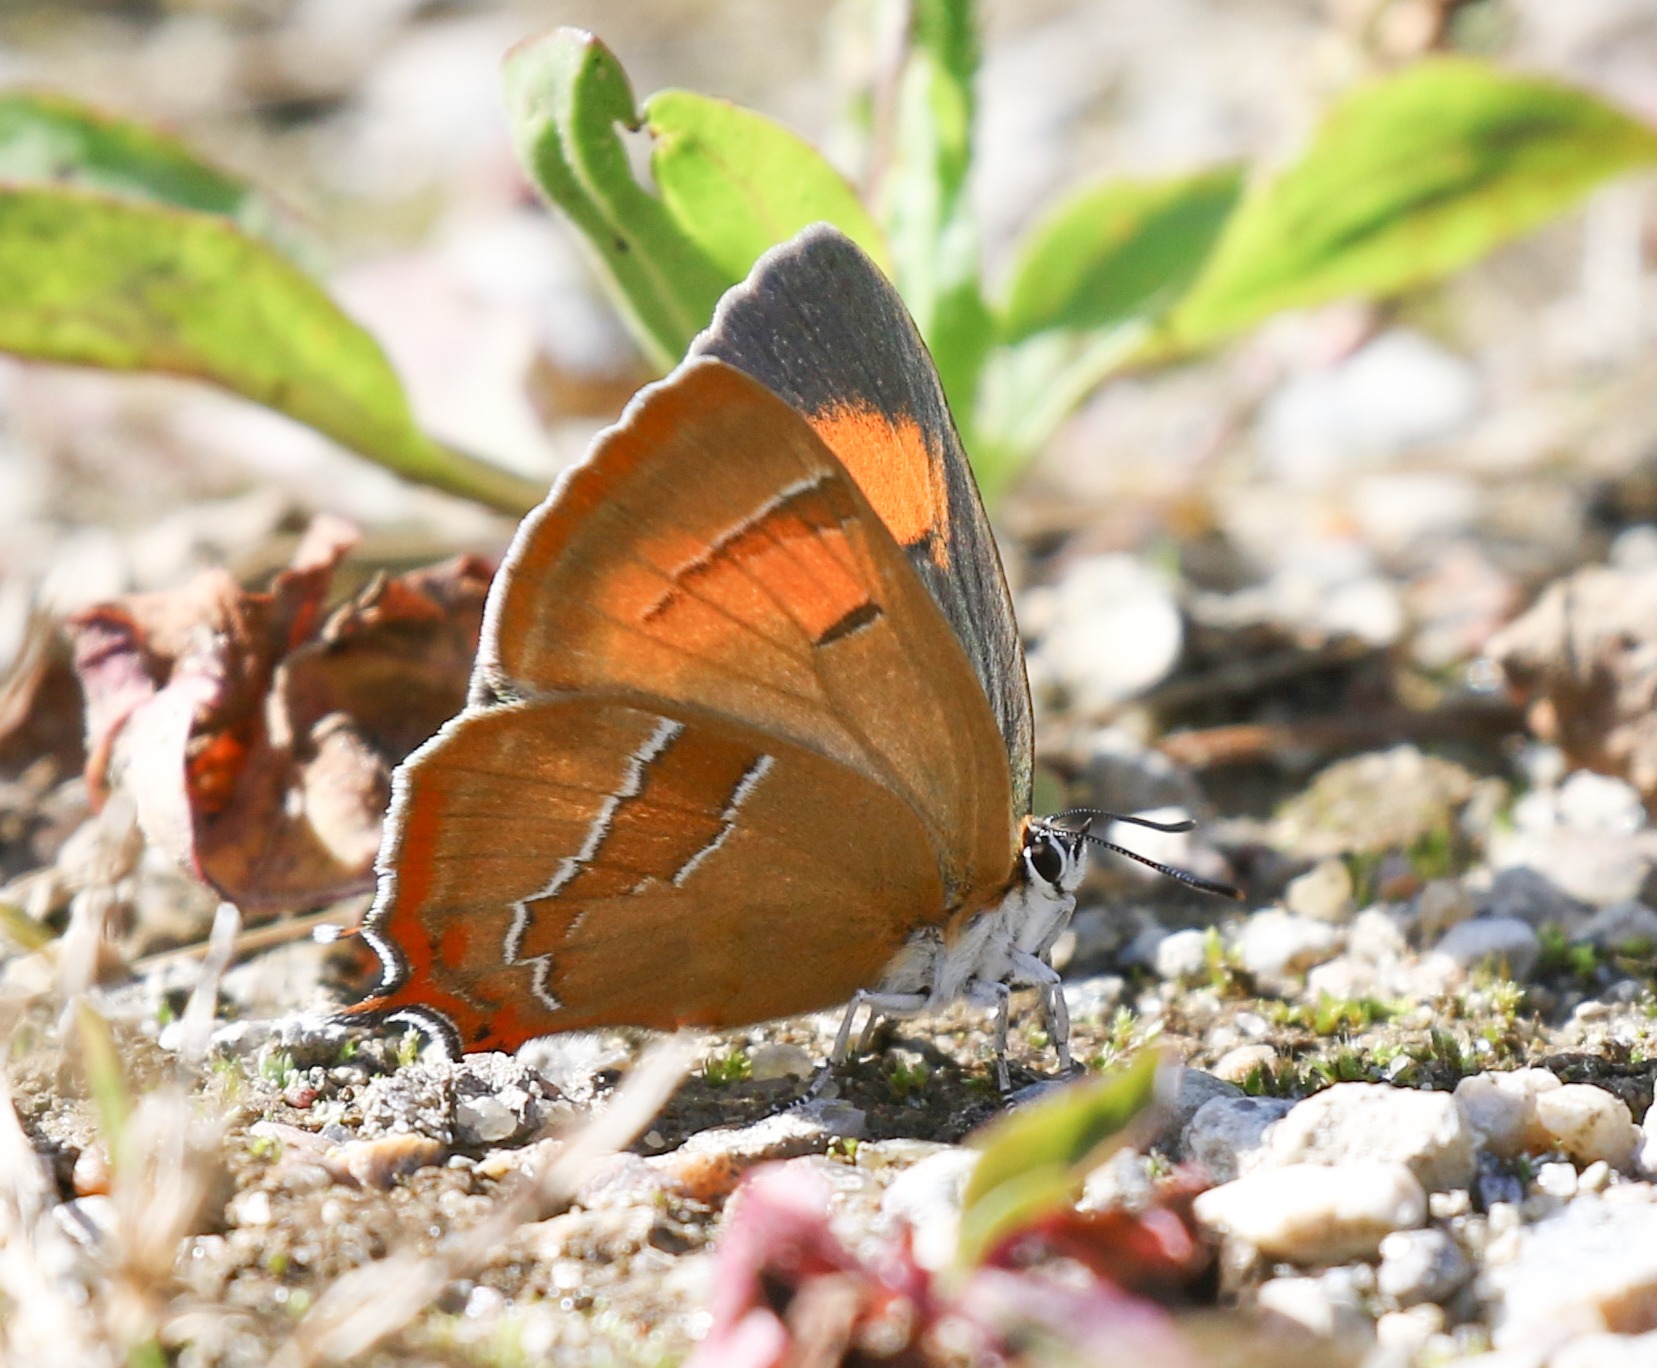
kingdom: Animalia
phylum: Arthropoda
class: Insecta
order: Lepidoptera
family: Lycaenidae
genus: Thecla
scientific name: Thecla betulae
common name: Guldhale
